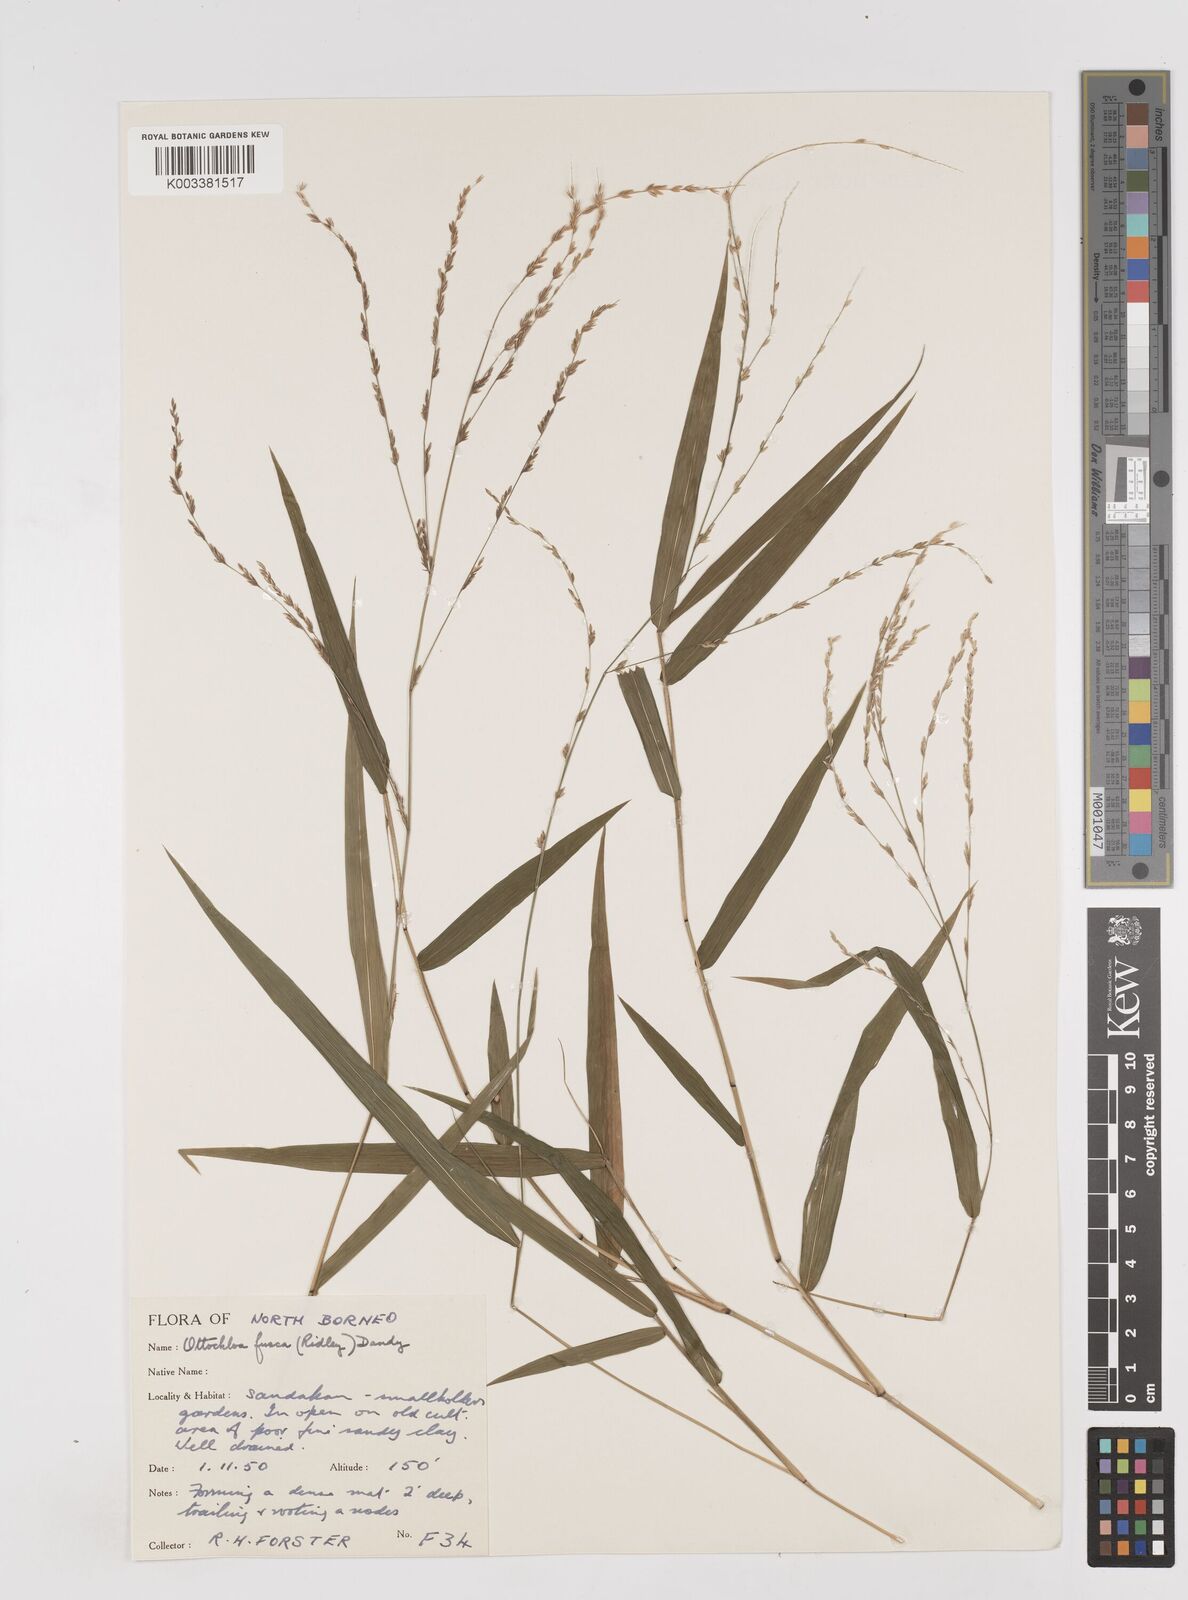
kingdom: Plantae
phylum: Tracheophyta
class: Liliopsida
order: Poales
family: Poaceae
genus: Ottochloa
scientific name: Ottochloa nodosa
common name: Slender-panic grass
